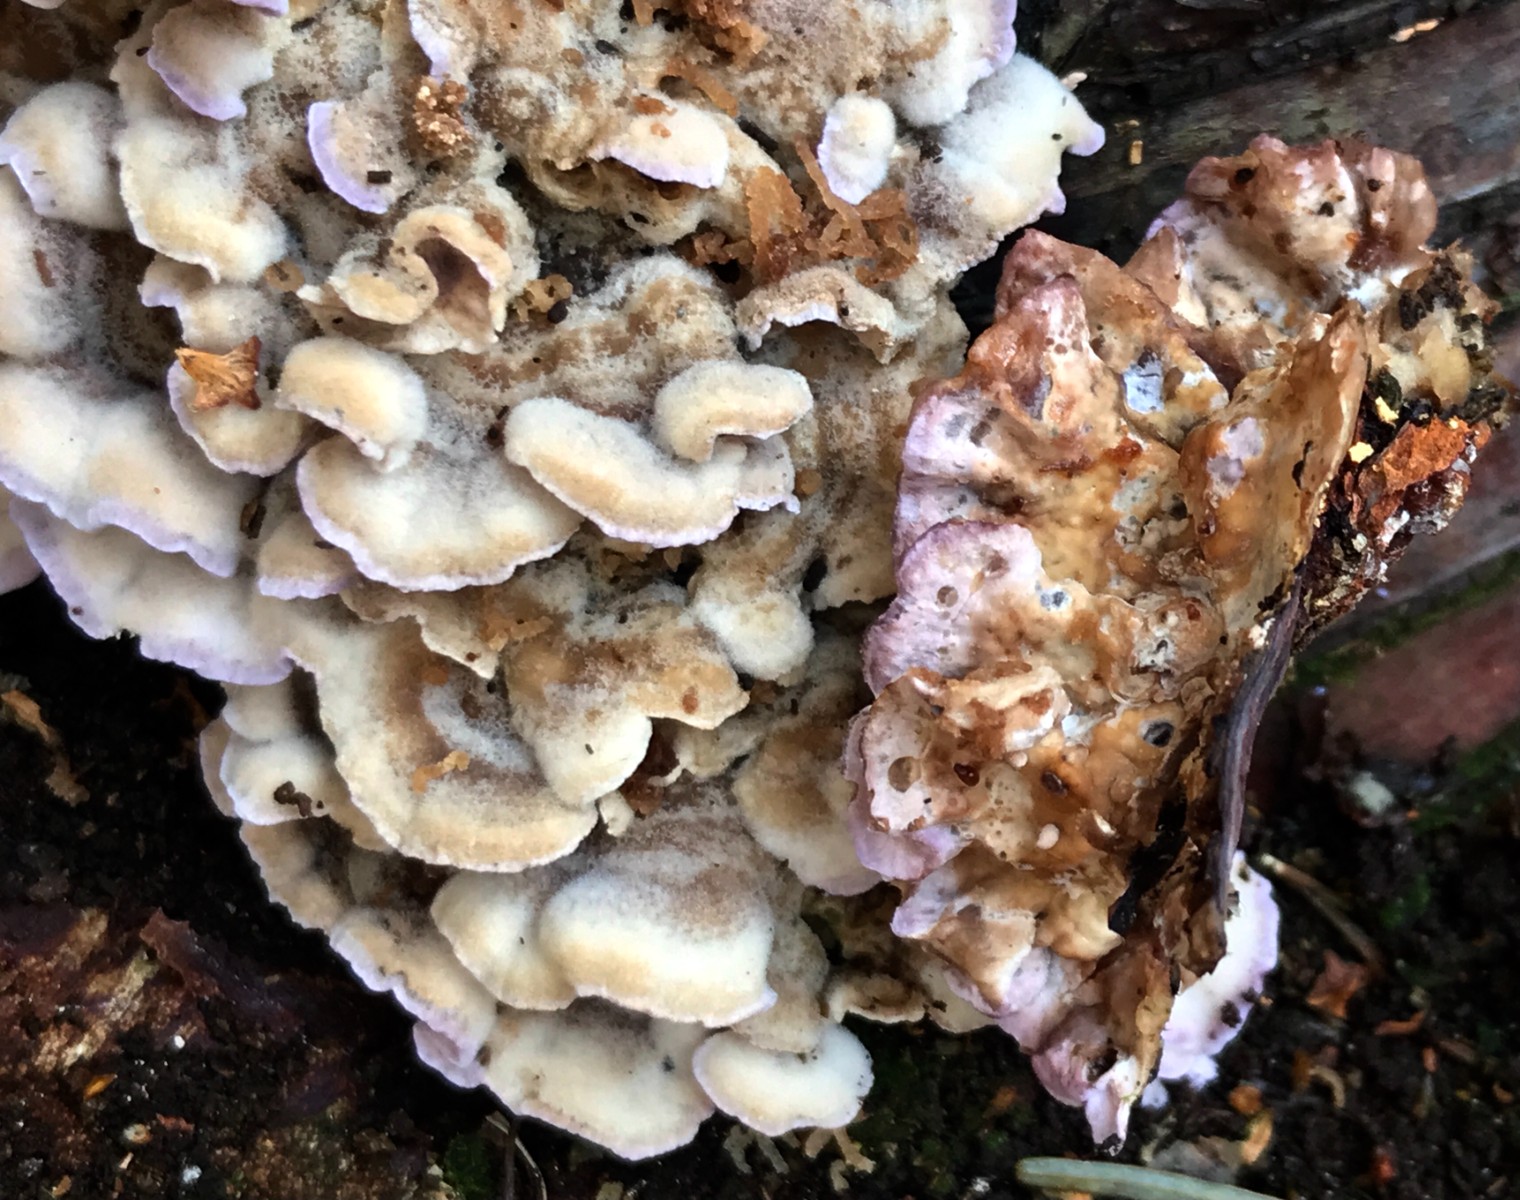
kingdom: Fungi
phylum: Basidiomycota
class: Agaricomycetes
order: Hymenochaetales
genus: Trichaptum
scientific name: Trichaptum abietinum
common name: almindelig violporesvamp
